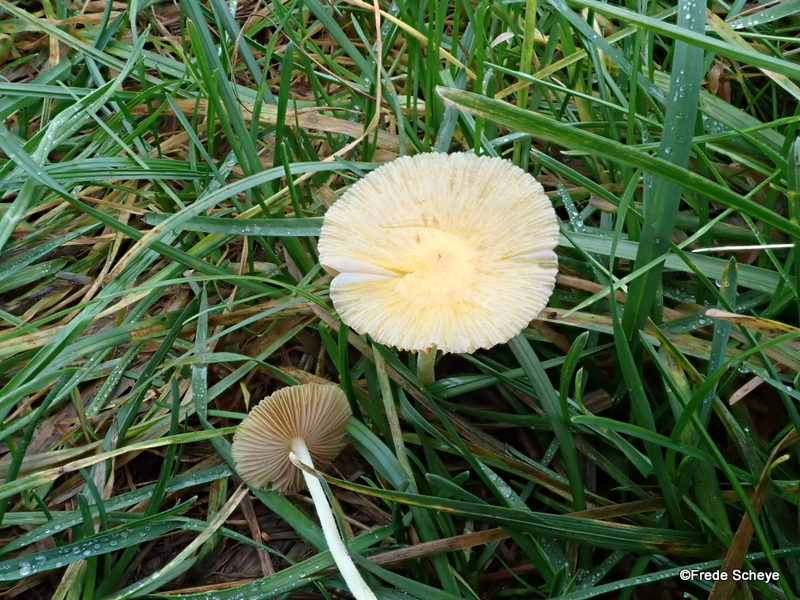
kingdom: Fungi
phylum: Basidiomycota
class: Agaricomycetes
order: Agaricales
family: Bolbitiaceae
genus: Bolbitius
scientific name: Bolbitius titubans
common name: almindelig gulhat
